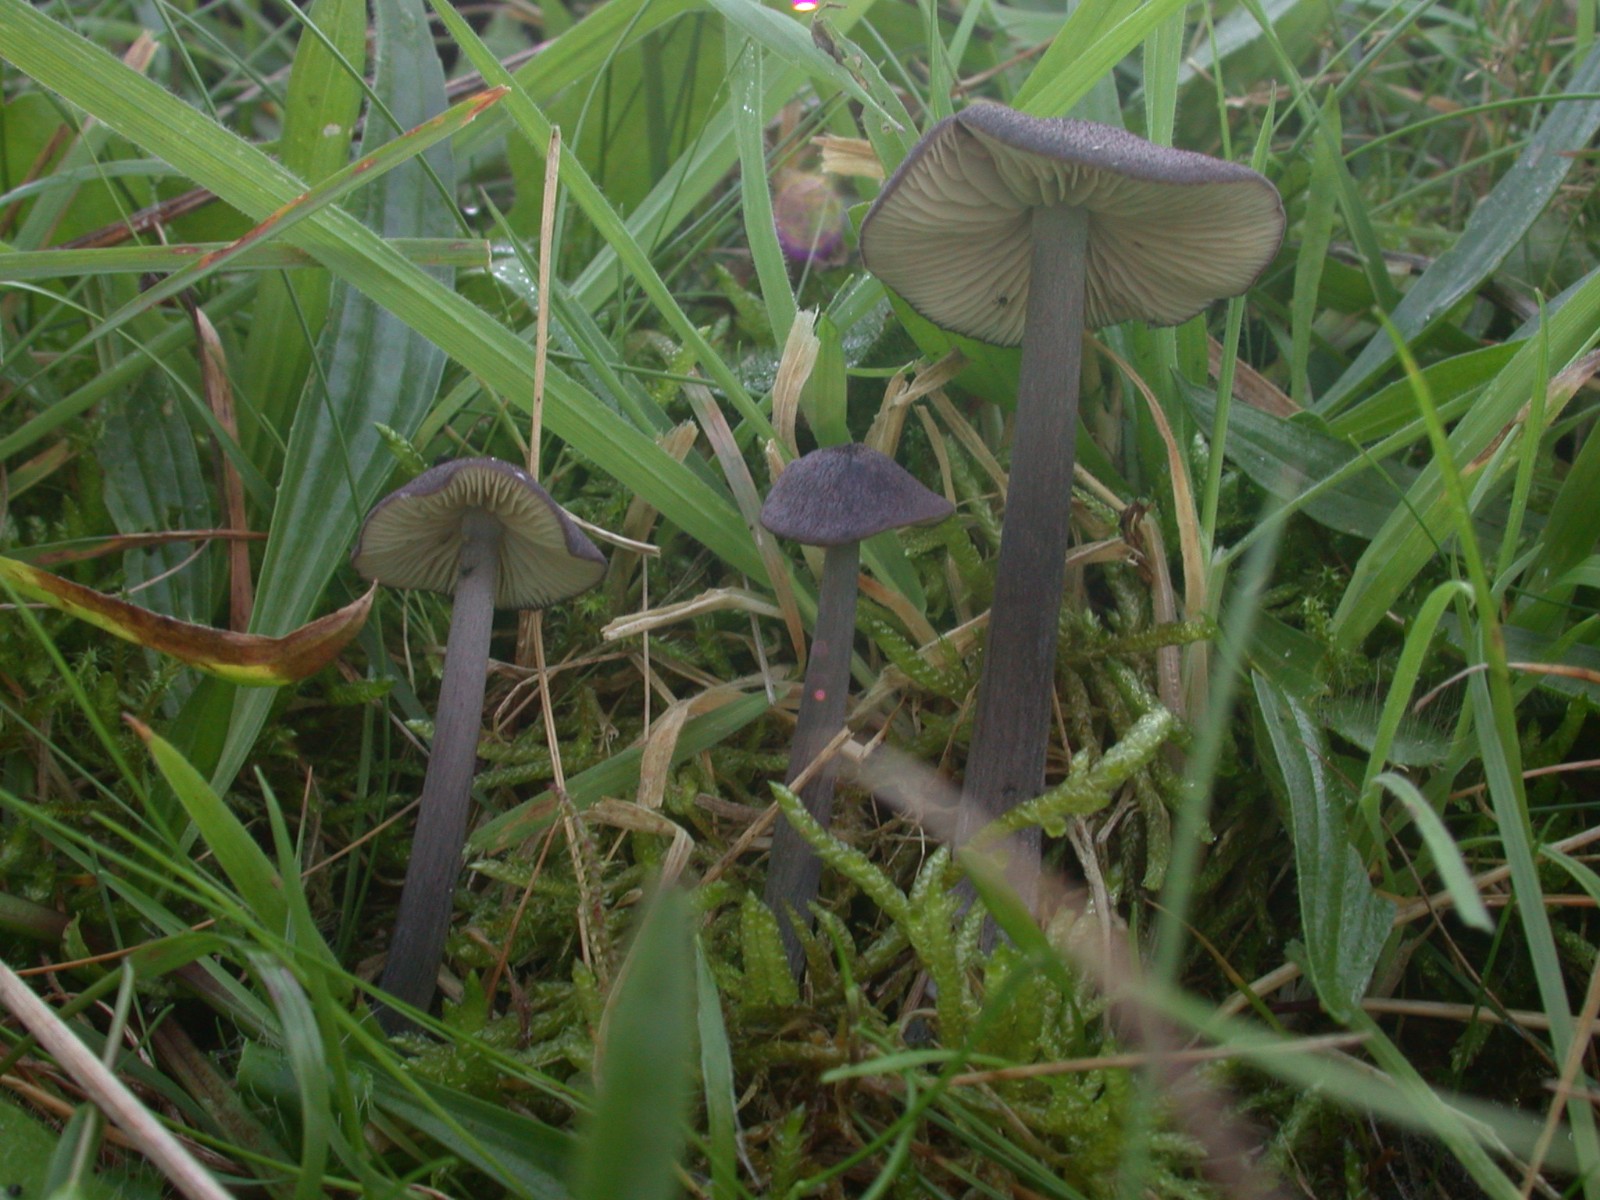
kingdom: Fungi
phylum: Basidiomycota
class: Agaricomycetes
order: Agaricales
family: Entolomataceae
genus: Entoloma
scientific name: Entoloma viiduense
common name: purpurbrun rødblad
